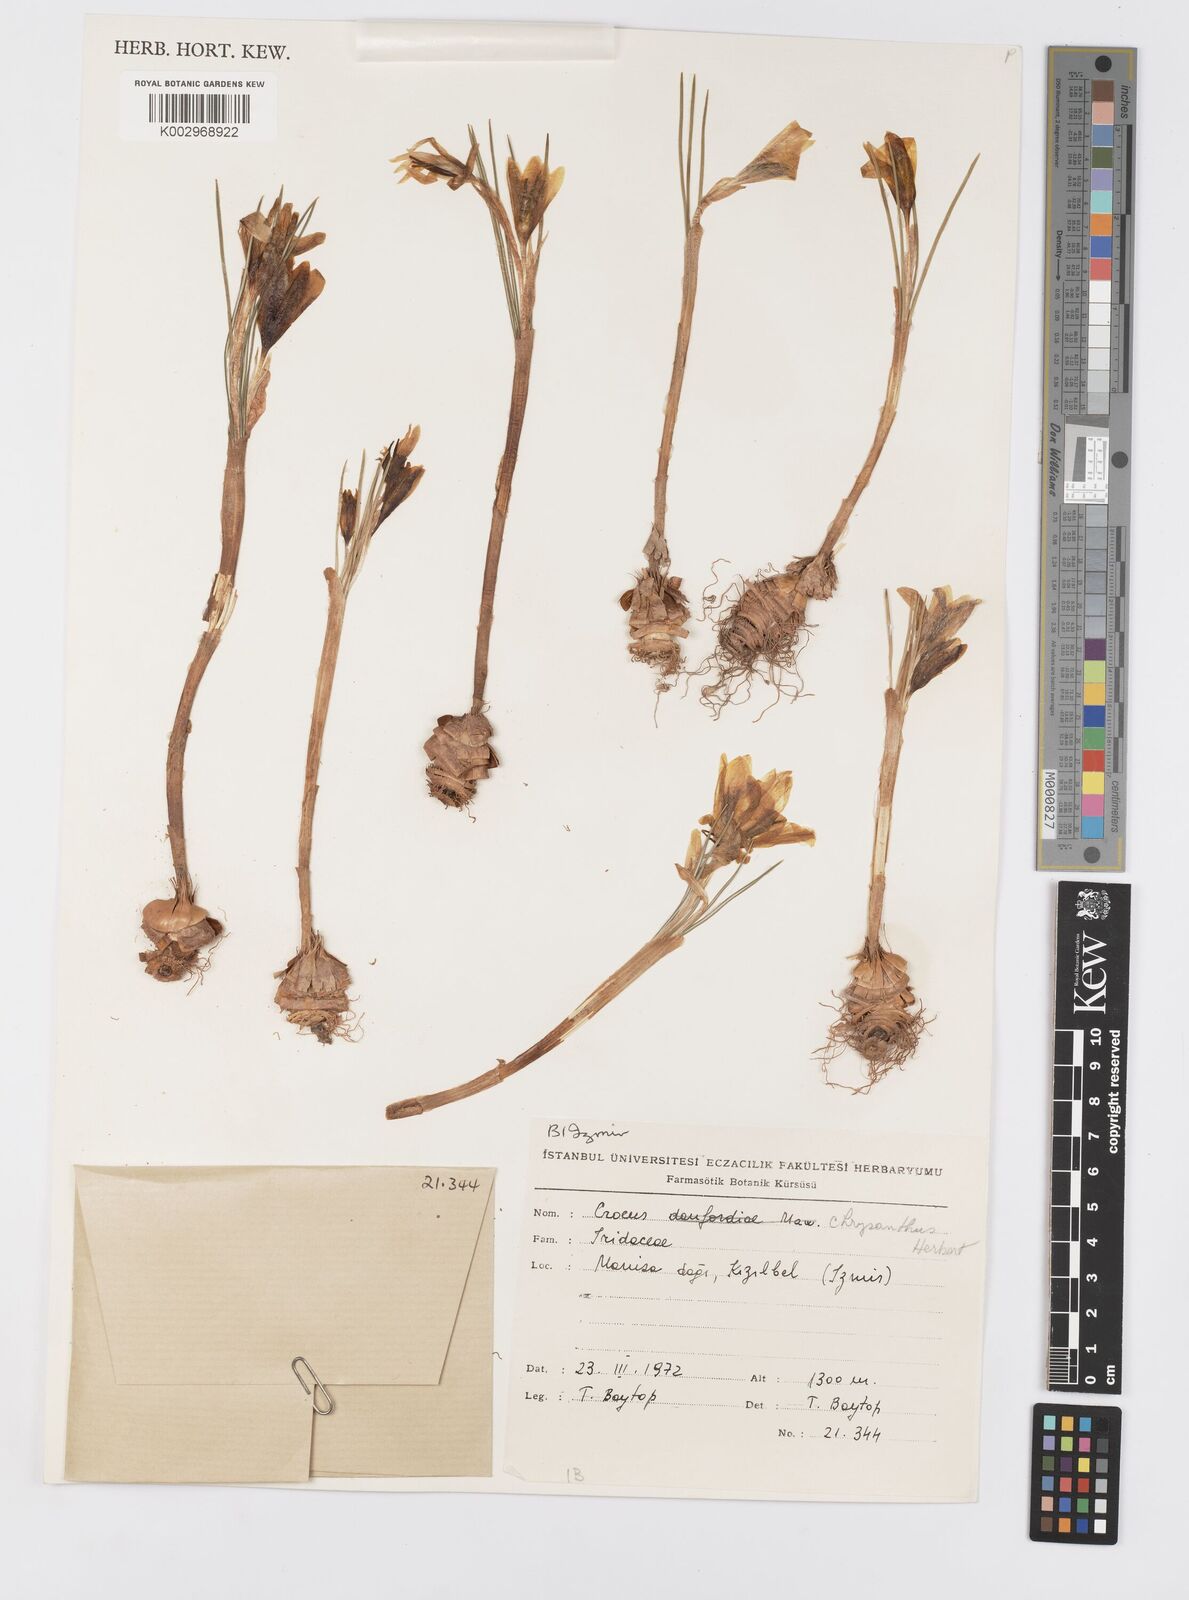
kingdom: Plantae
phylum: Tracheophyta
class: Liliopsida
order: Asparagales
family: Iridaceae
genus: Crocus
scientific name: Crocus
